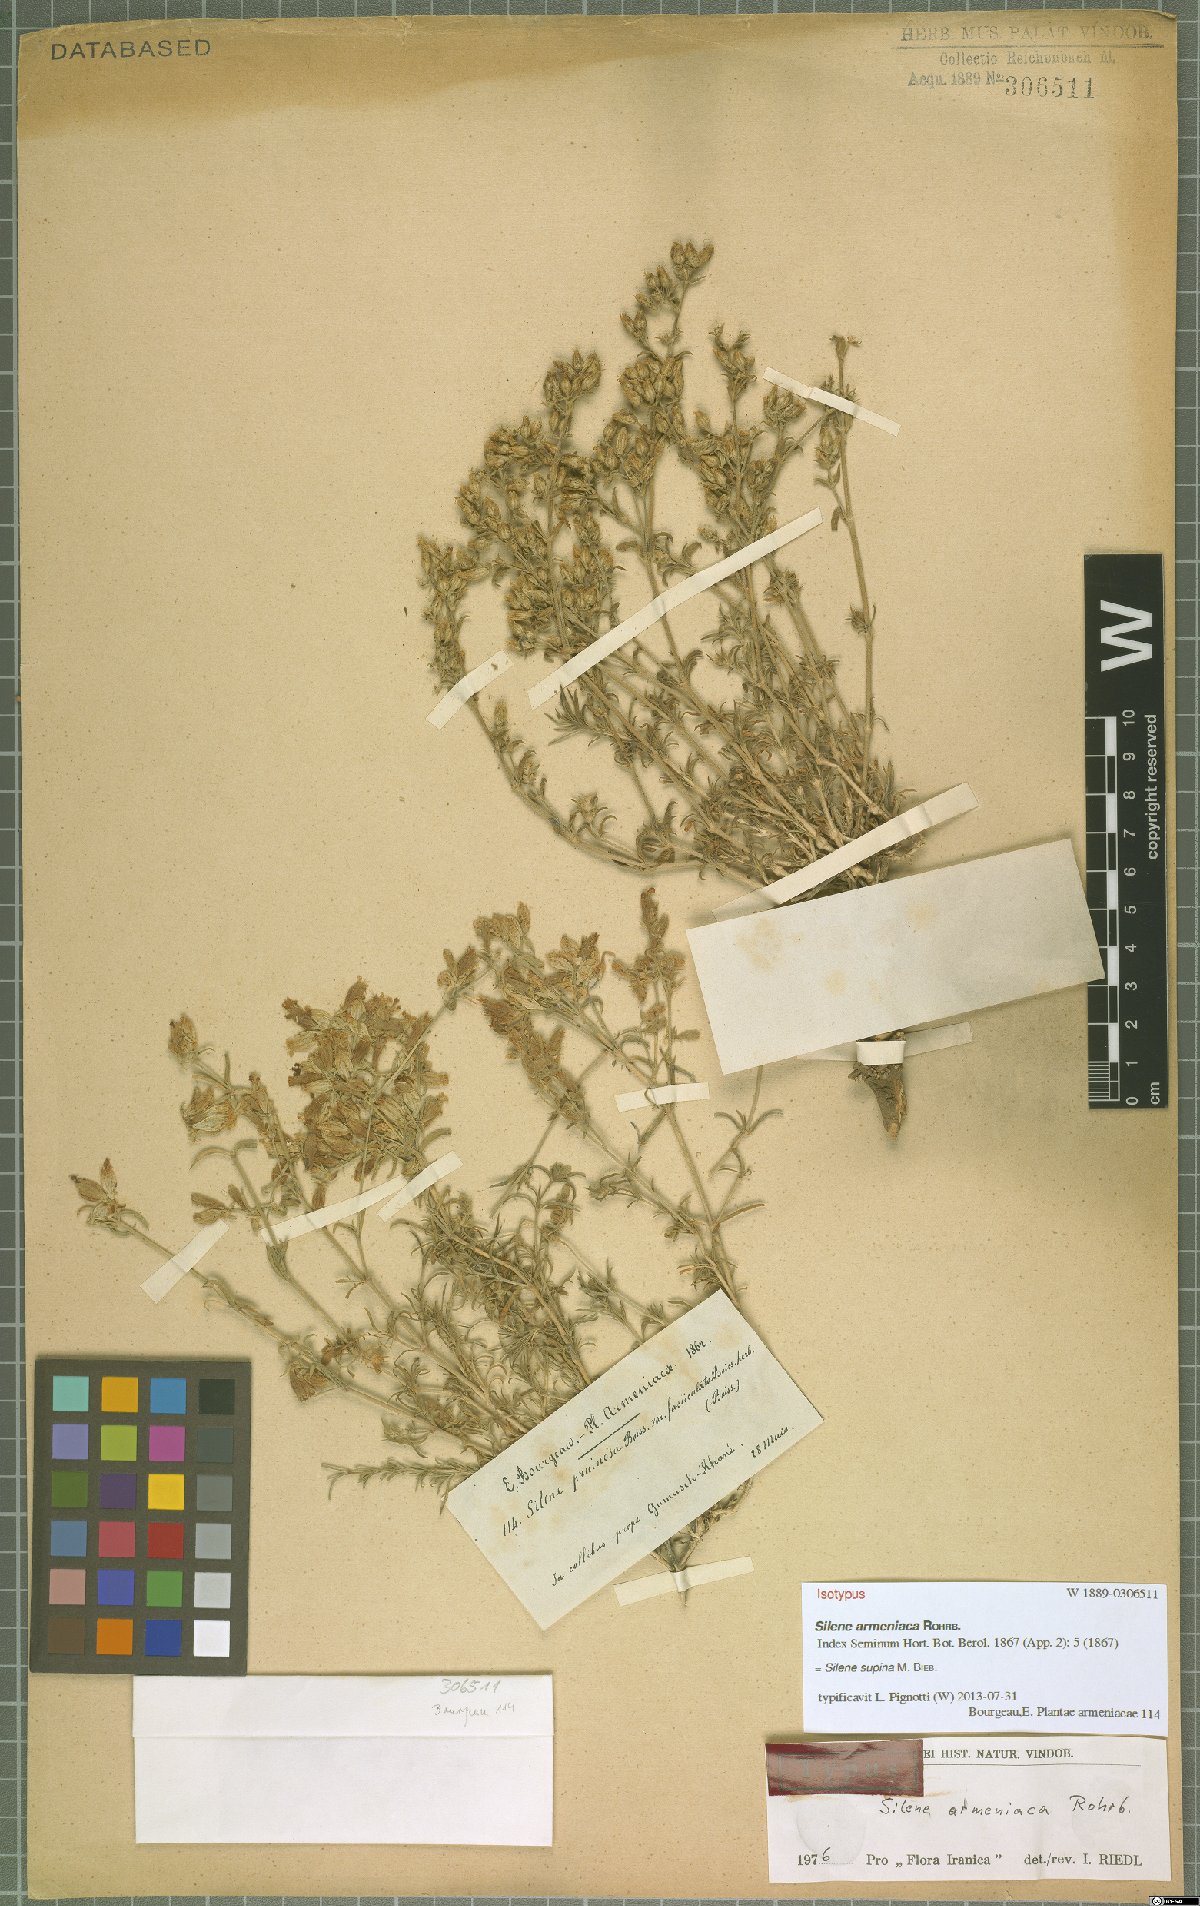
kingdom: Plantae
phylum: Tracheophyta
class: Magnoliopsida
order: Caryophyllales
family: Caryophyllaceae
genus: Silene
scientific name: Silene supina
